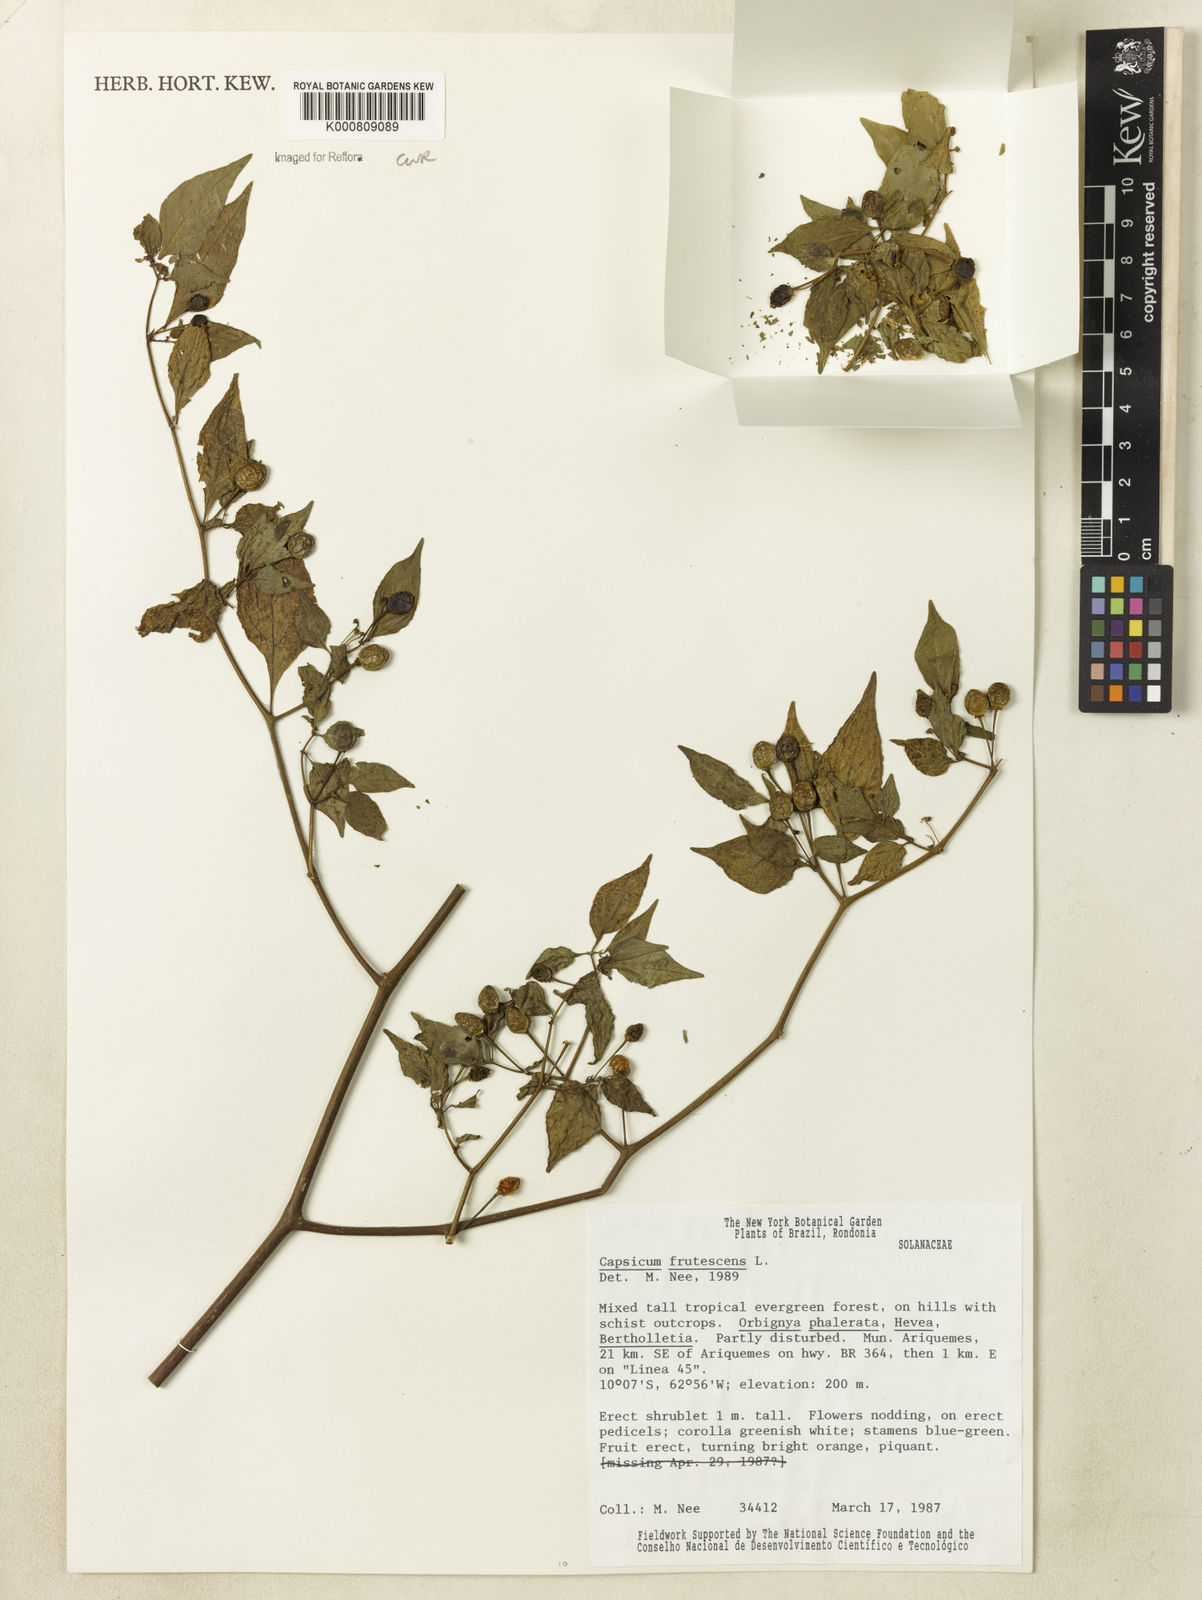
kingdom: Plantae
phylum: Tracheophyta
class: Magnoliopsida
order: Solanales
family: Solanaceae
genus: Capsicum
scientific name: Capsicum frutescens
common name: Bird pepper
